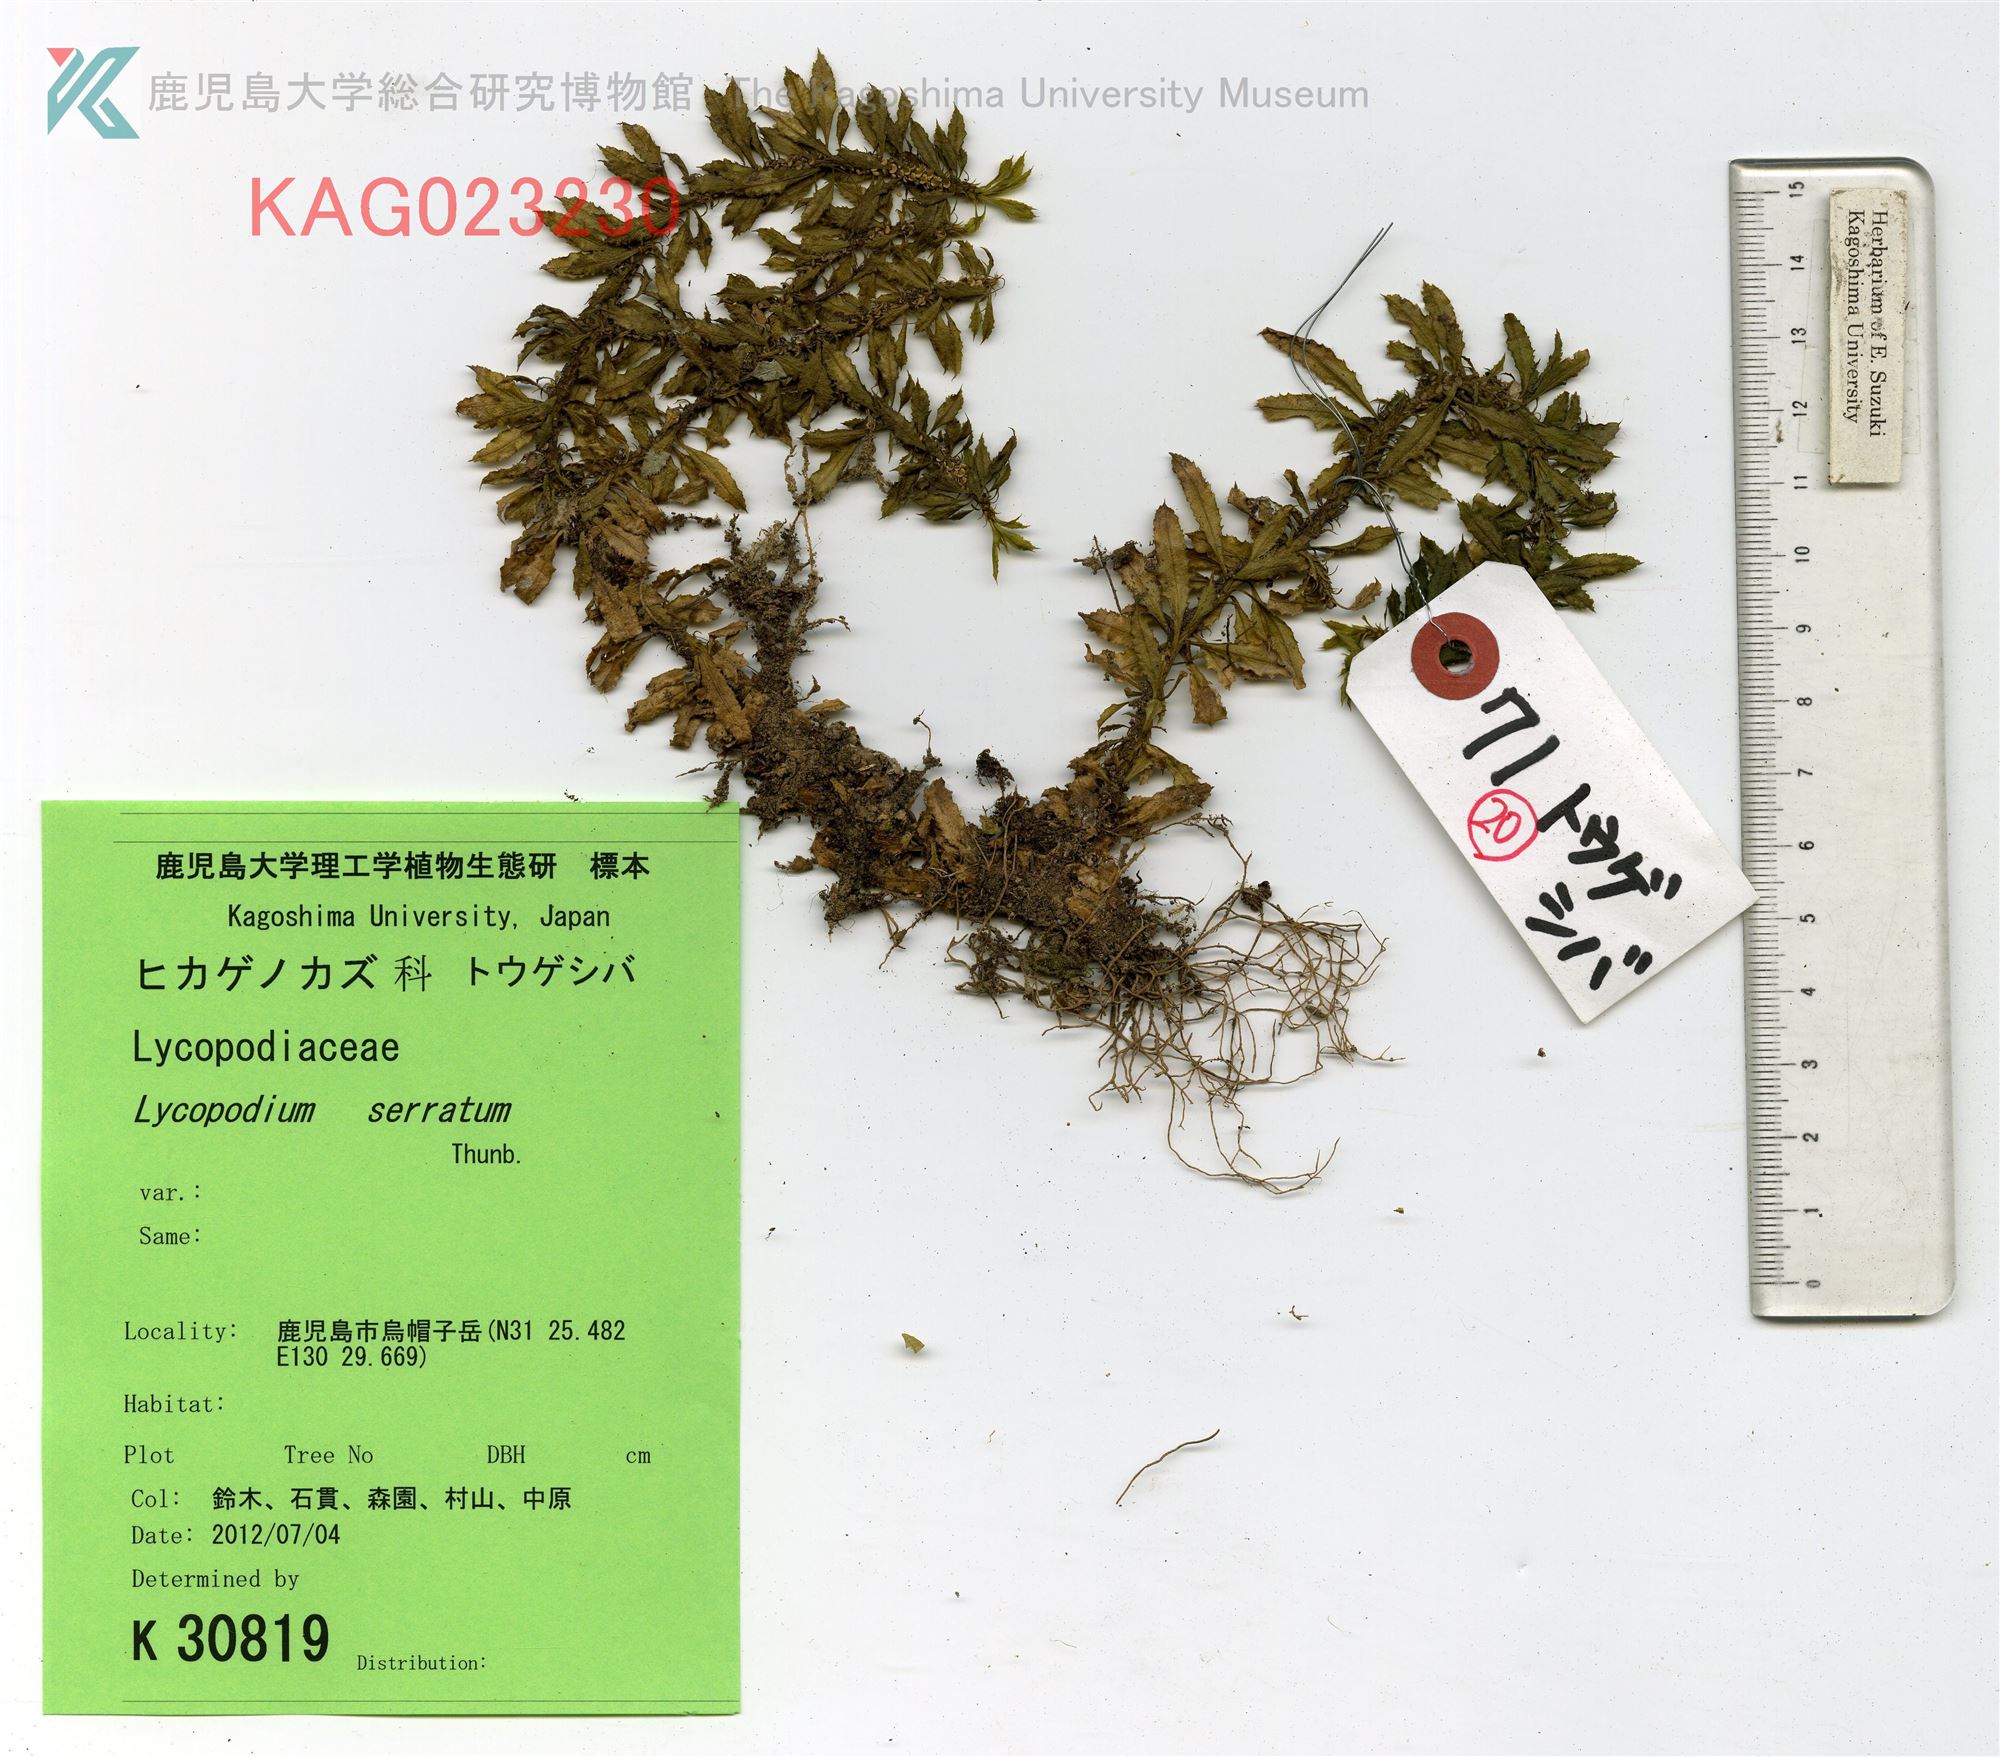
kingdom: Plantae
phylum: Tracheophyta
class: Lycopodiopsida
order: Lycopodiales
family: Lycopodiaceae
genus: Huperzia
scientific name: Huperzia serrata
